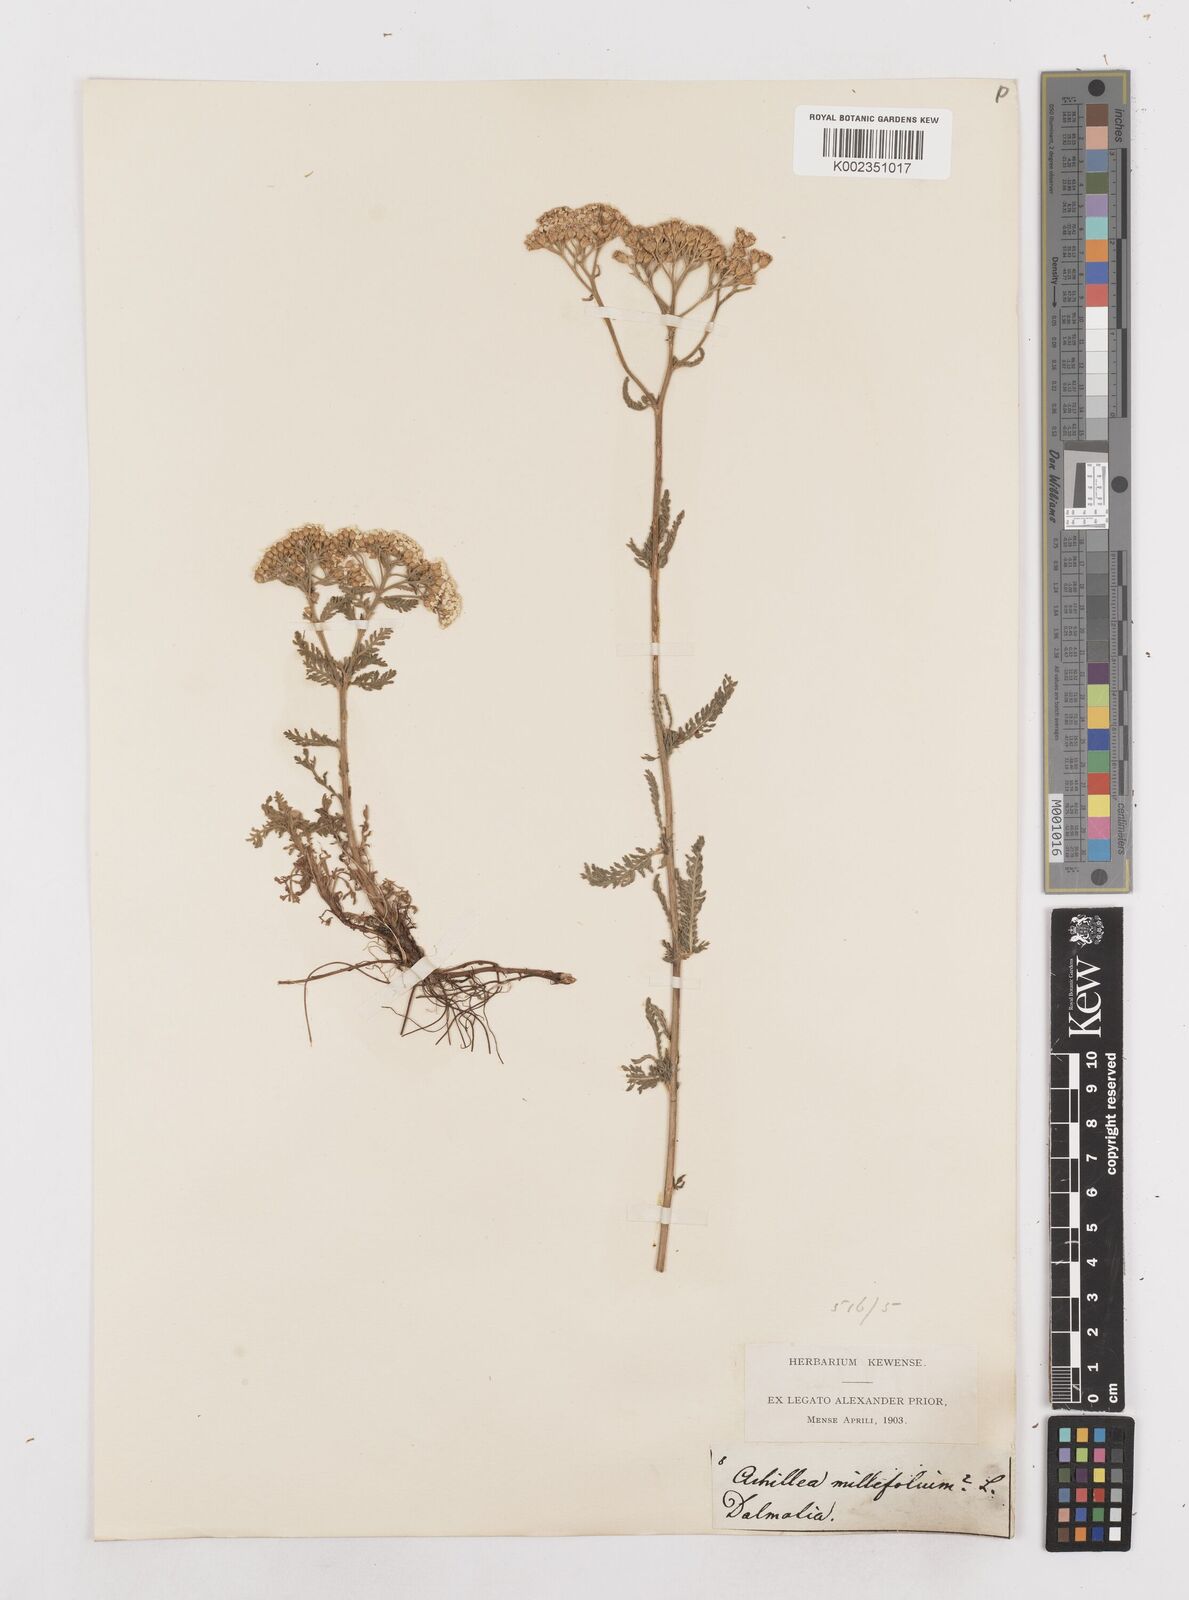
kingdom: Plantae
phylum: Tracheophyta
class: Magnoliopsida
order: Asterales
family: Asteraceae
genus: Achillea
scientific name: Achillea millefolium
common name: Yarrow
